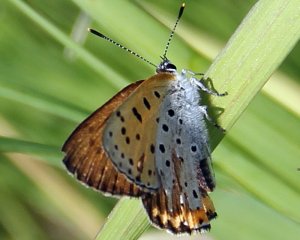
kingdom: Animalia
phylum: Arthropoda
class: Insecta
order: Lepidoptera
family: Sesiidae
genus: Sesia
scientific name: Sesia Lycaena hyllus
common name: Bronze Copper
